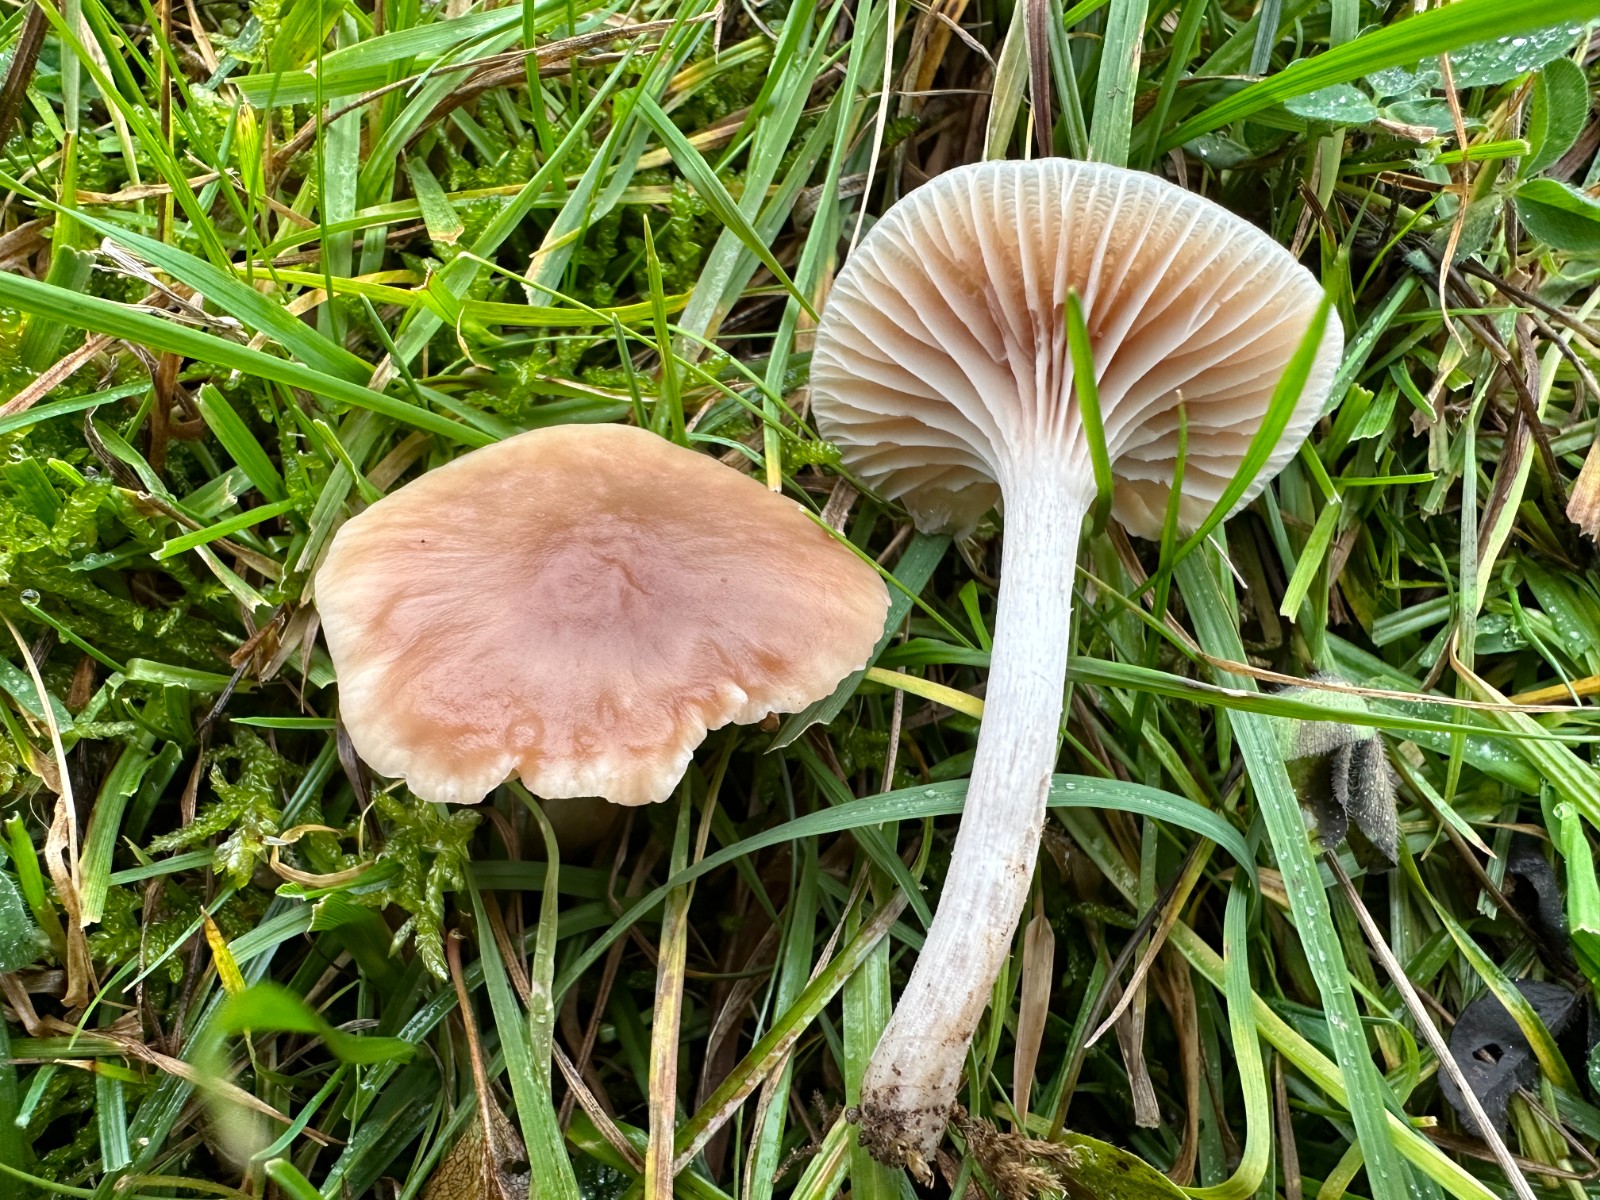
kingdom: Fungi
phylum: Basidiomycota
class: Agaricomycetes
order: Agaricales
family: Hygrophoraceae
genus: Cuphophyllus
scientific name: Cuphophyllus colemannianus
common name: rødbrun vokshat
